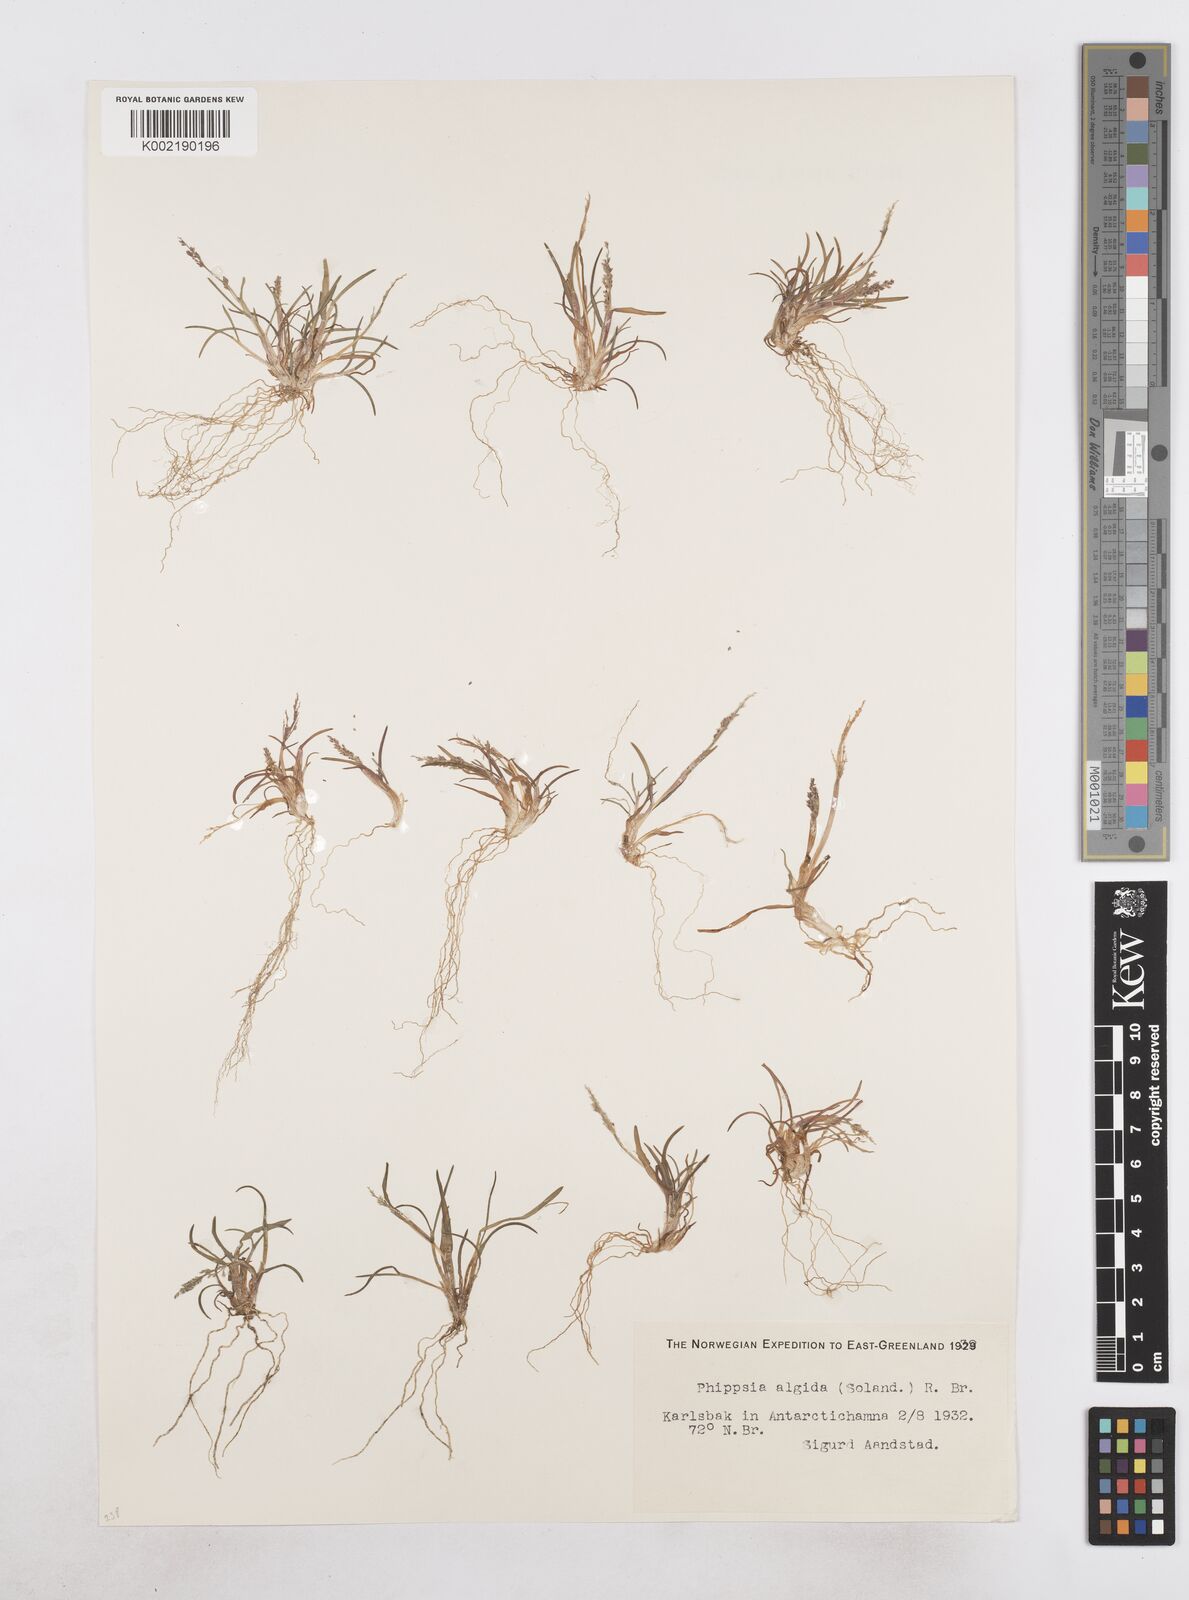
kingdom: Plantae
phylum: Tracheophyta
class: Liliopsida
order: Poales
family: Poaceae
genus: Phippsia
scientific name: Phippsia algida
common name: Ice grass
